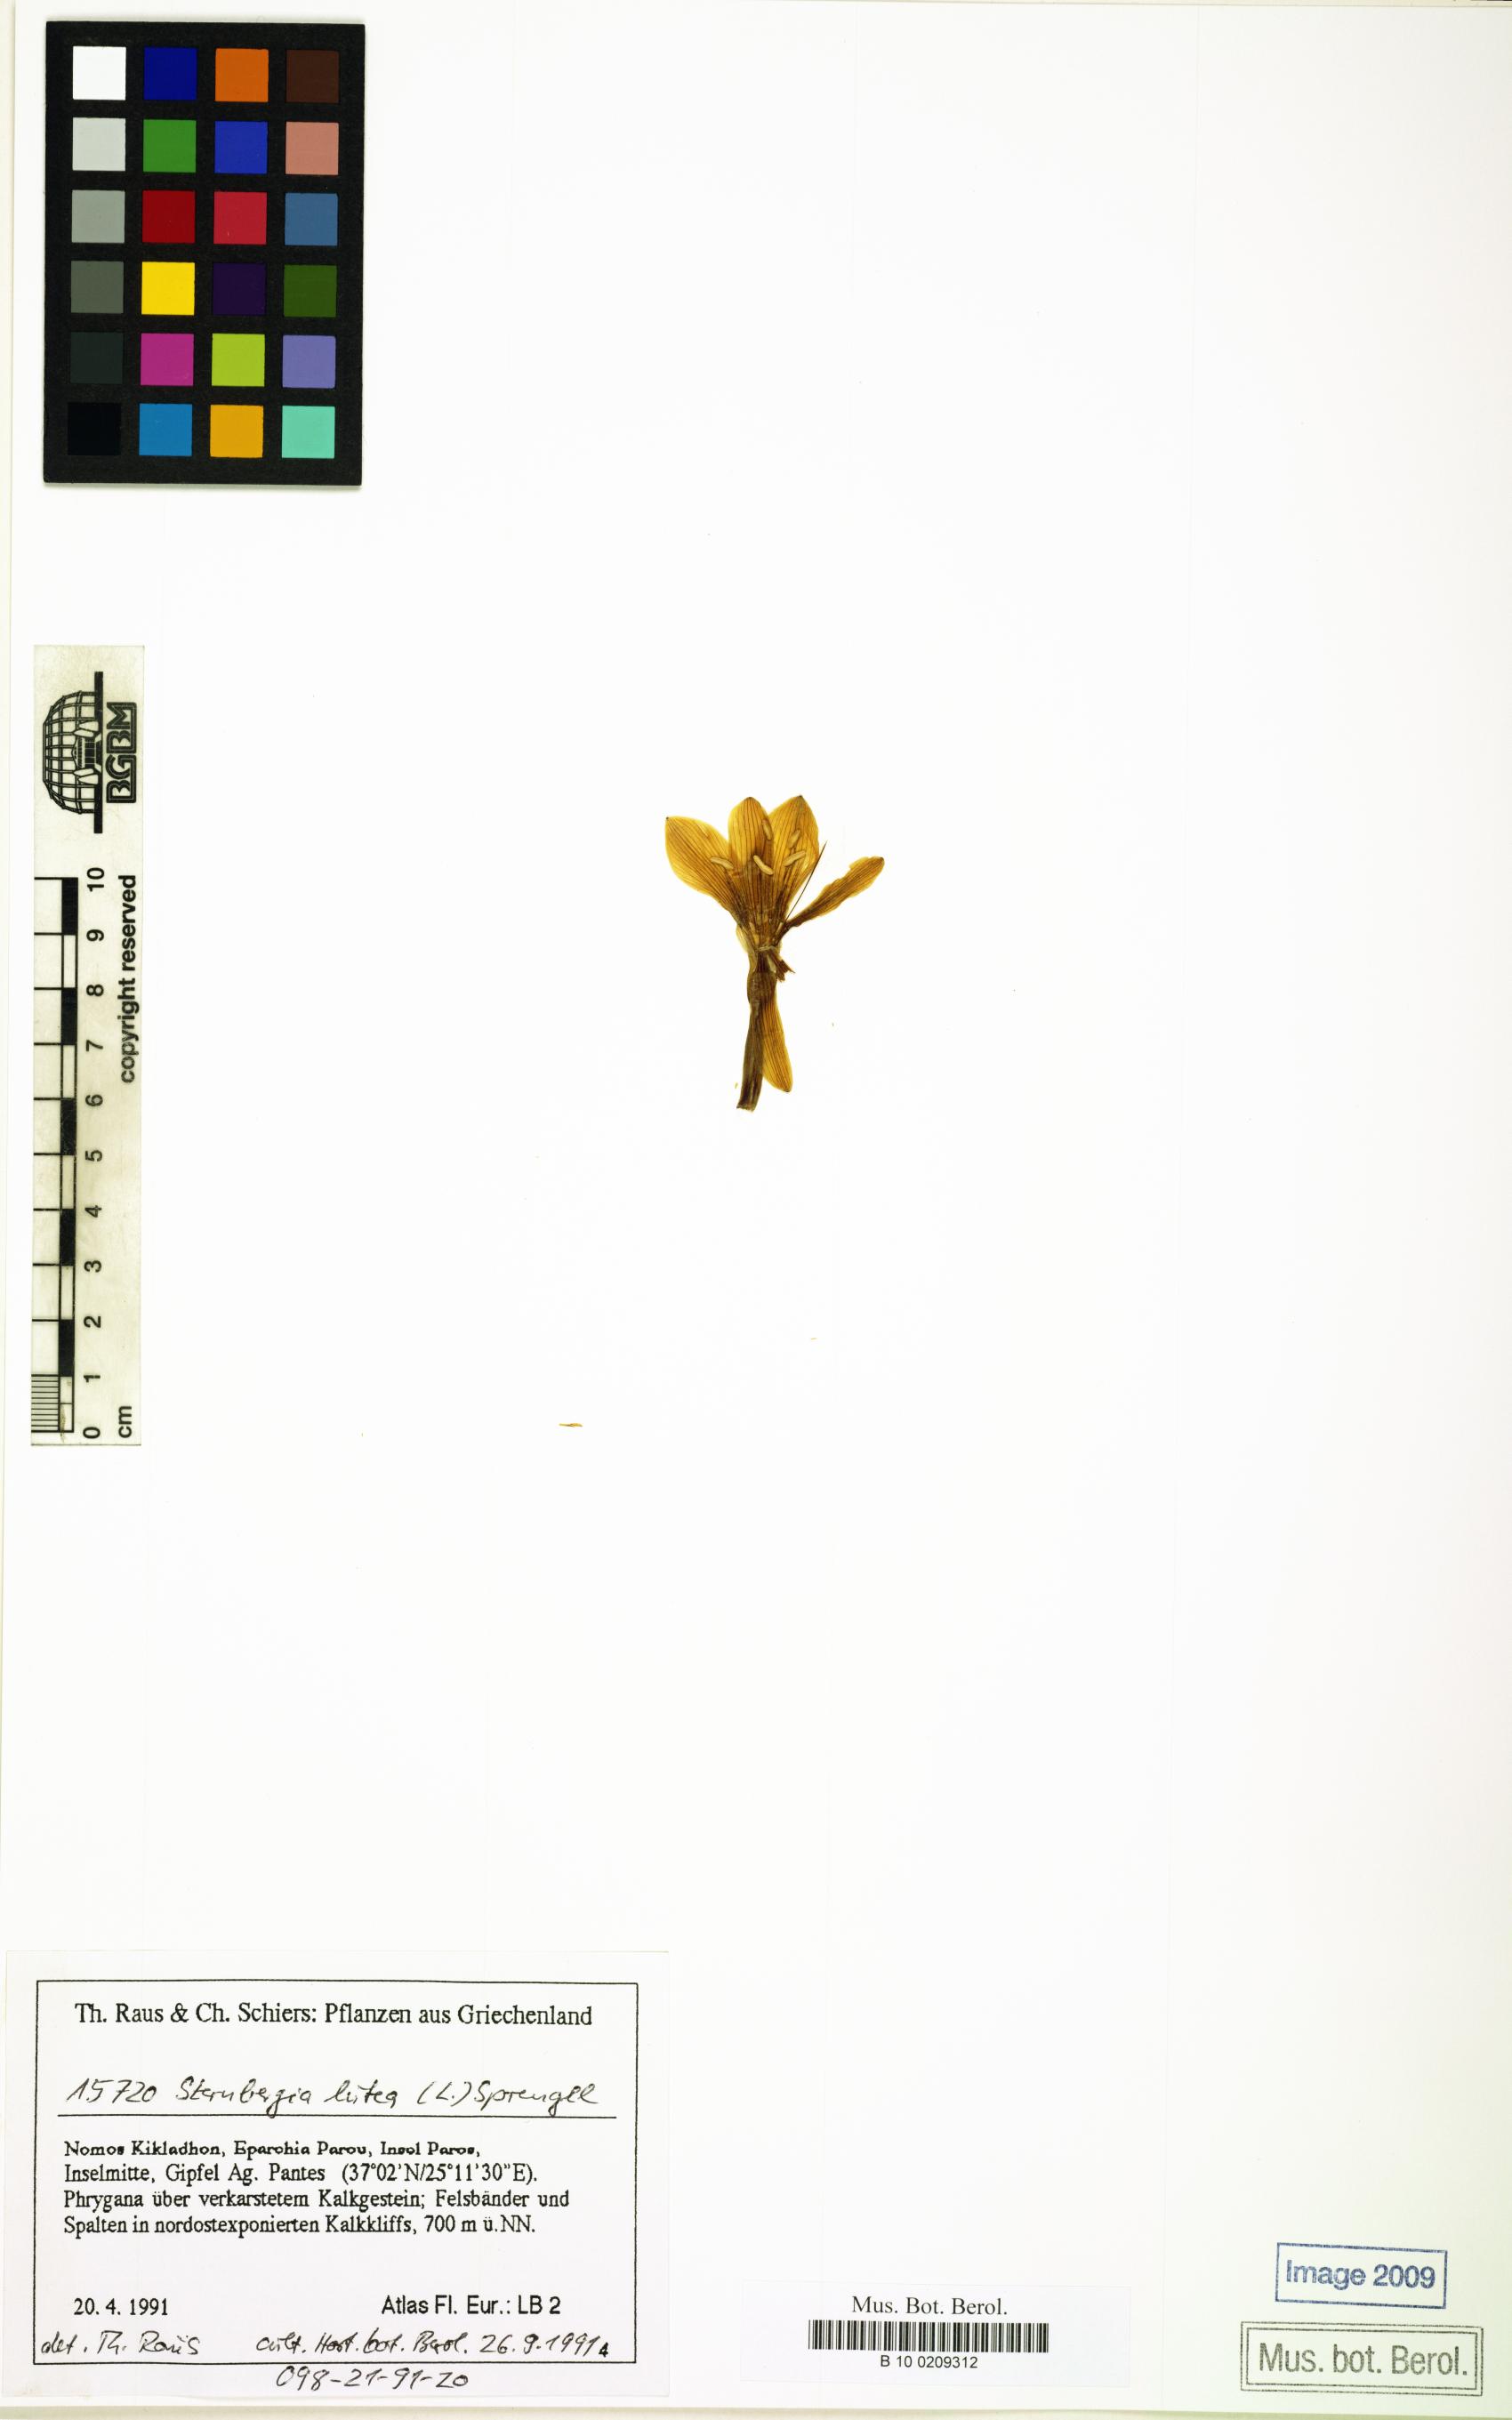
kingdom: Plantae
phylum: Tracheophyta
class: Liliopsida
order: Asparagales
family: Amaryllidaceae
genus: Sternbergia
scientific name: Sternbergia lutea
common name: Winter daffodil
